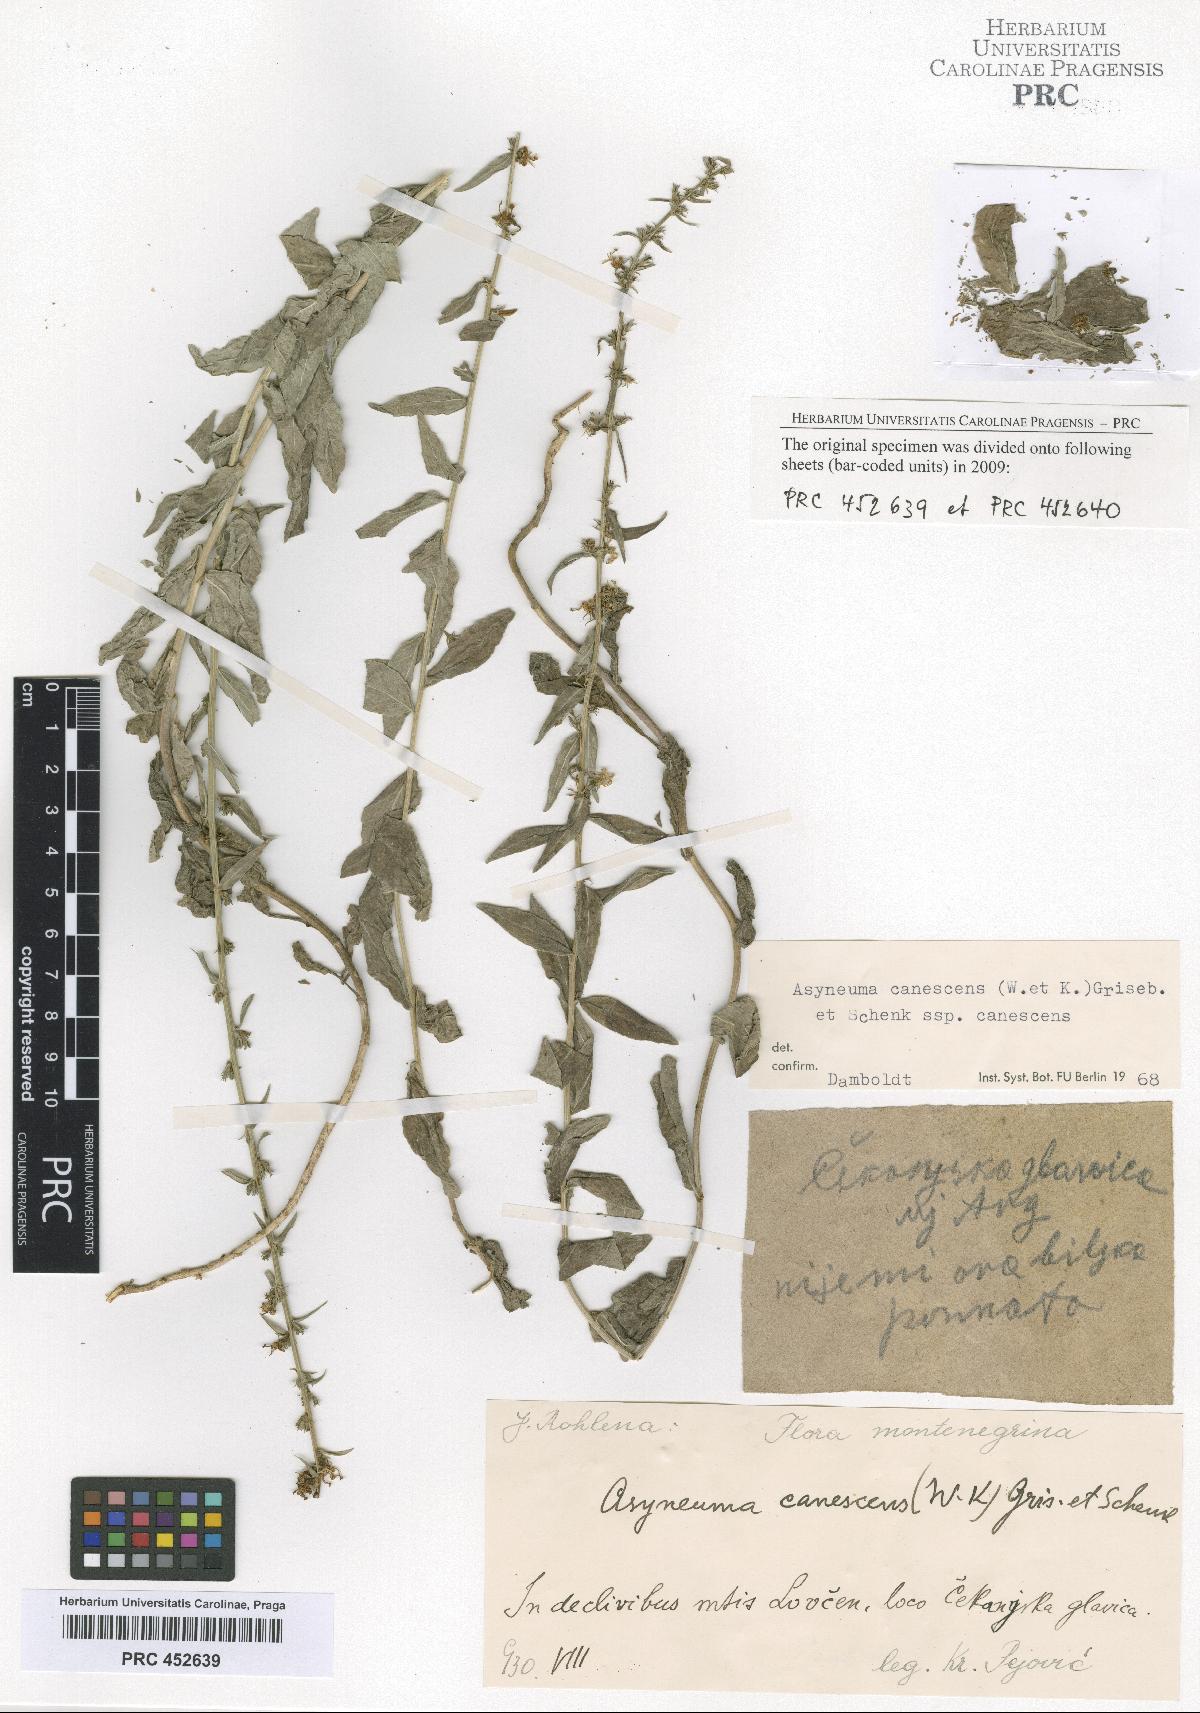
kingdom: Plantae
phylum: Tracheophyta
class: Magnoliopsida
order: Asterales
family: Campanulaceae
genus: Asyneuma
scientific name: Asyneuma canescens
